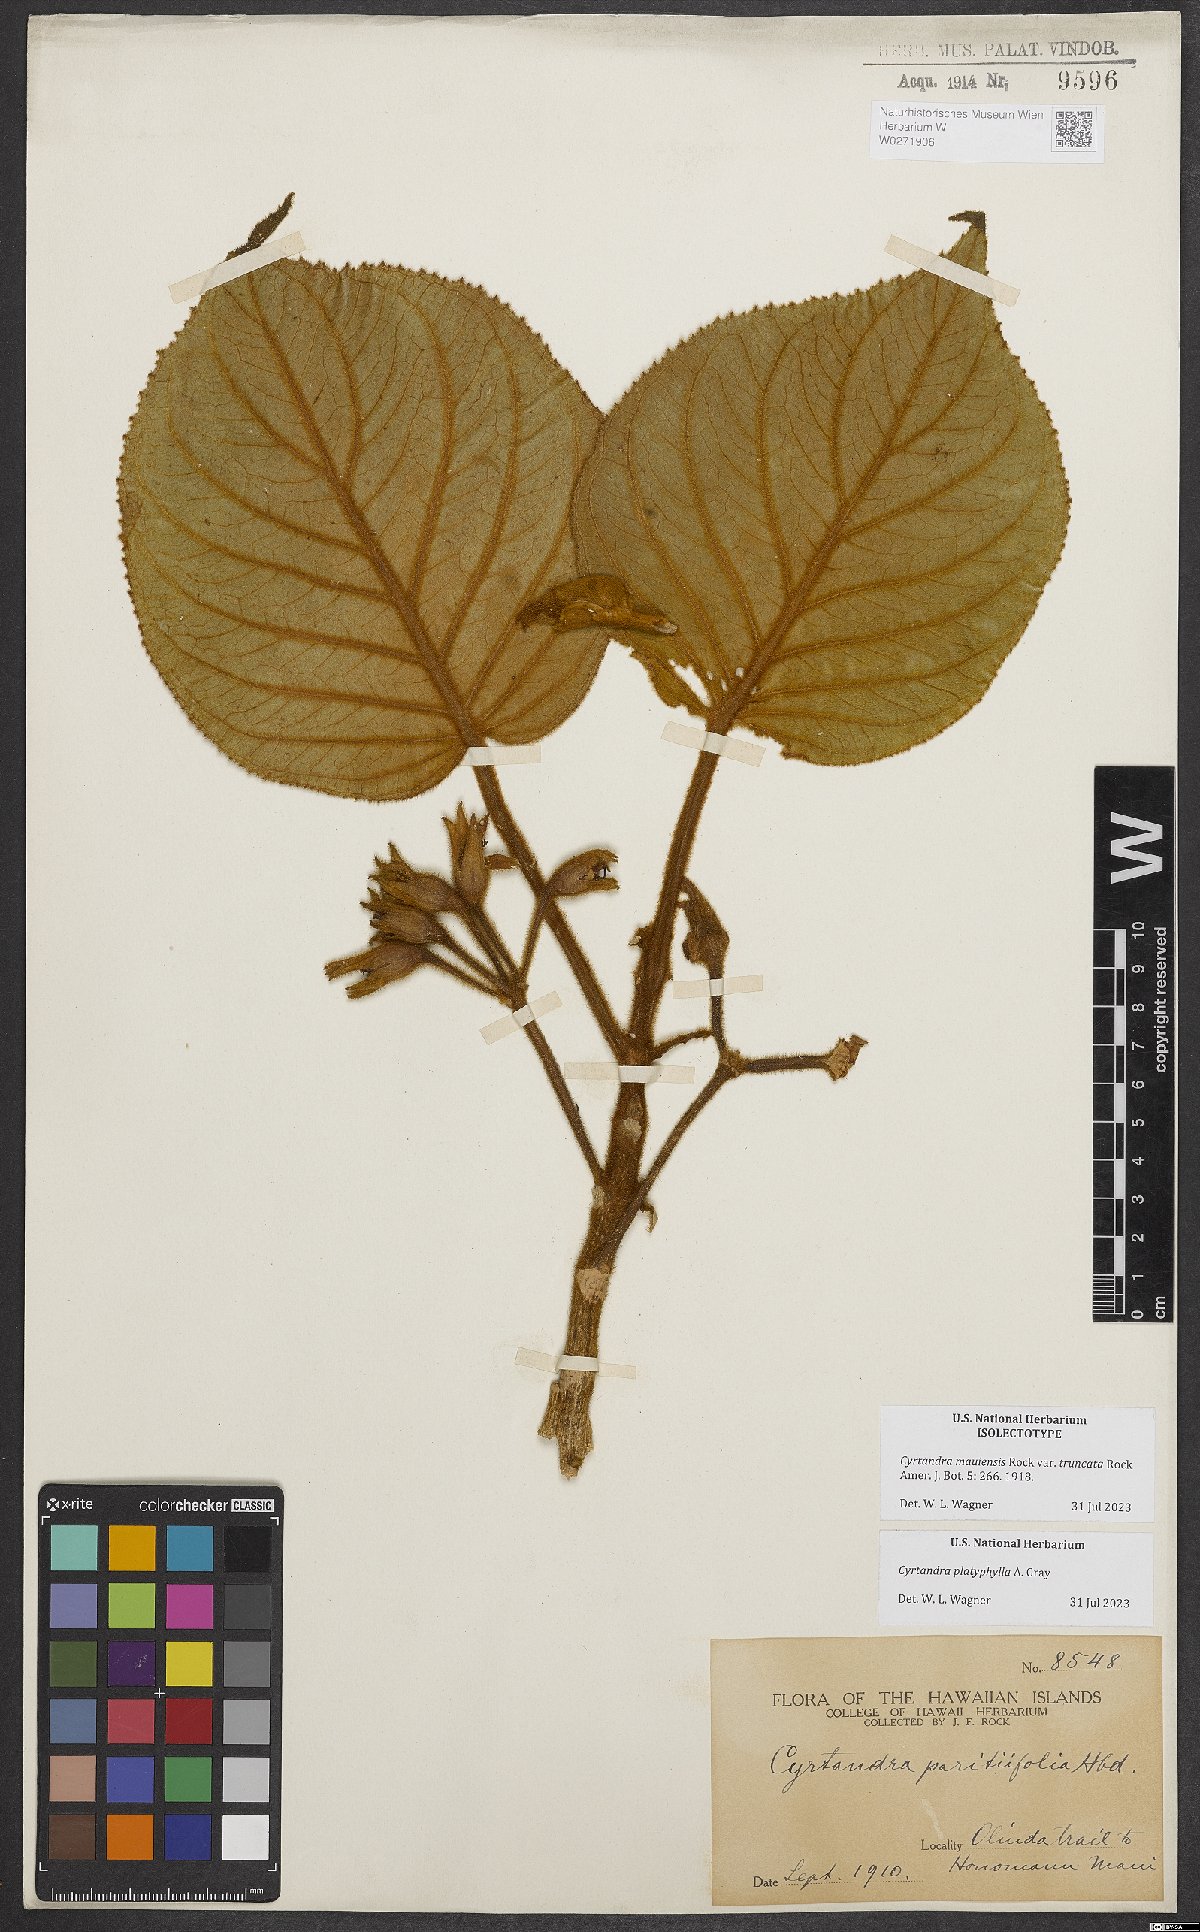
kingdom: Plantae
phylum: Tracheophyta
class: Magnoliopsida
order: Lamiales
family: Gesneriaceae
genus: Cyrtandra
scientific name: Cyrtandra platyphylla
